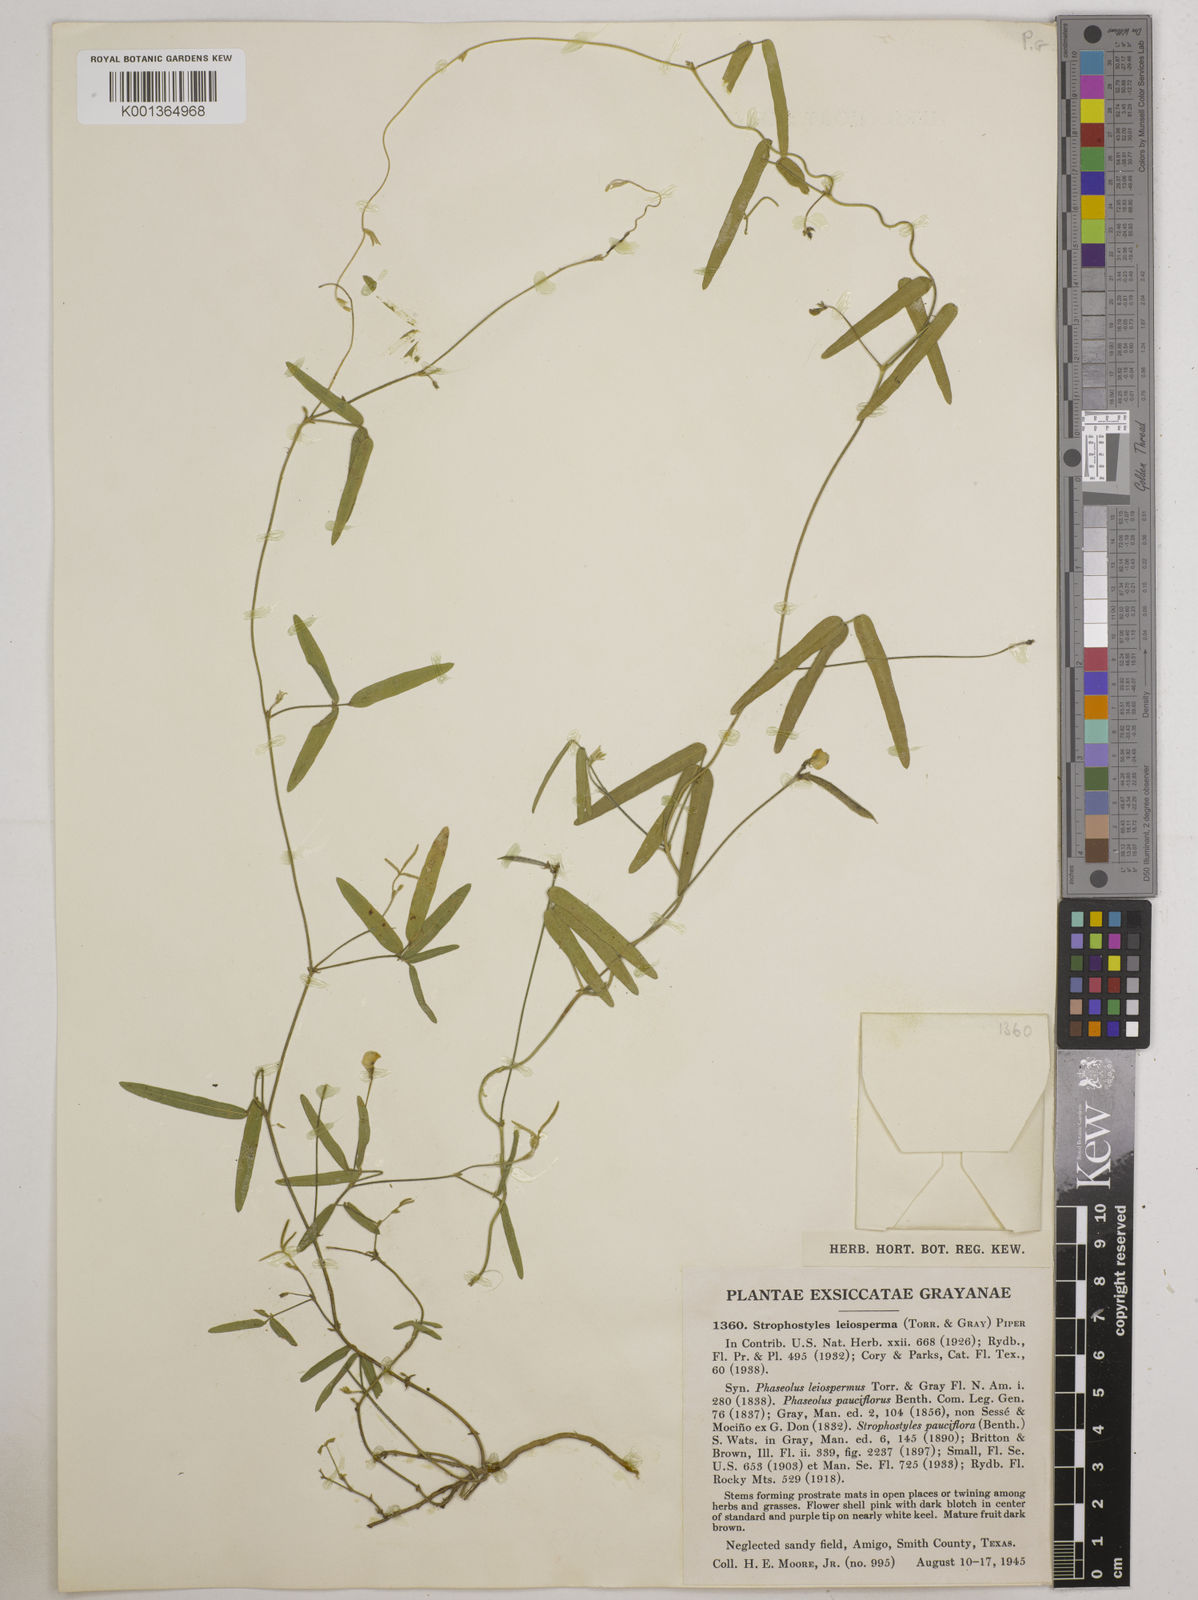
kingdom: Plantae
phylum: Tracheophyta
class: Magnoliopsida
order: Fabales
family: Fabaceae
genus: Strophostyles
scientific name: Strophostyles leiosperma
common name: Smooth-seed wild bean
